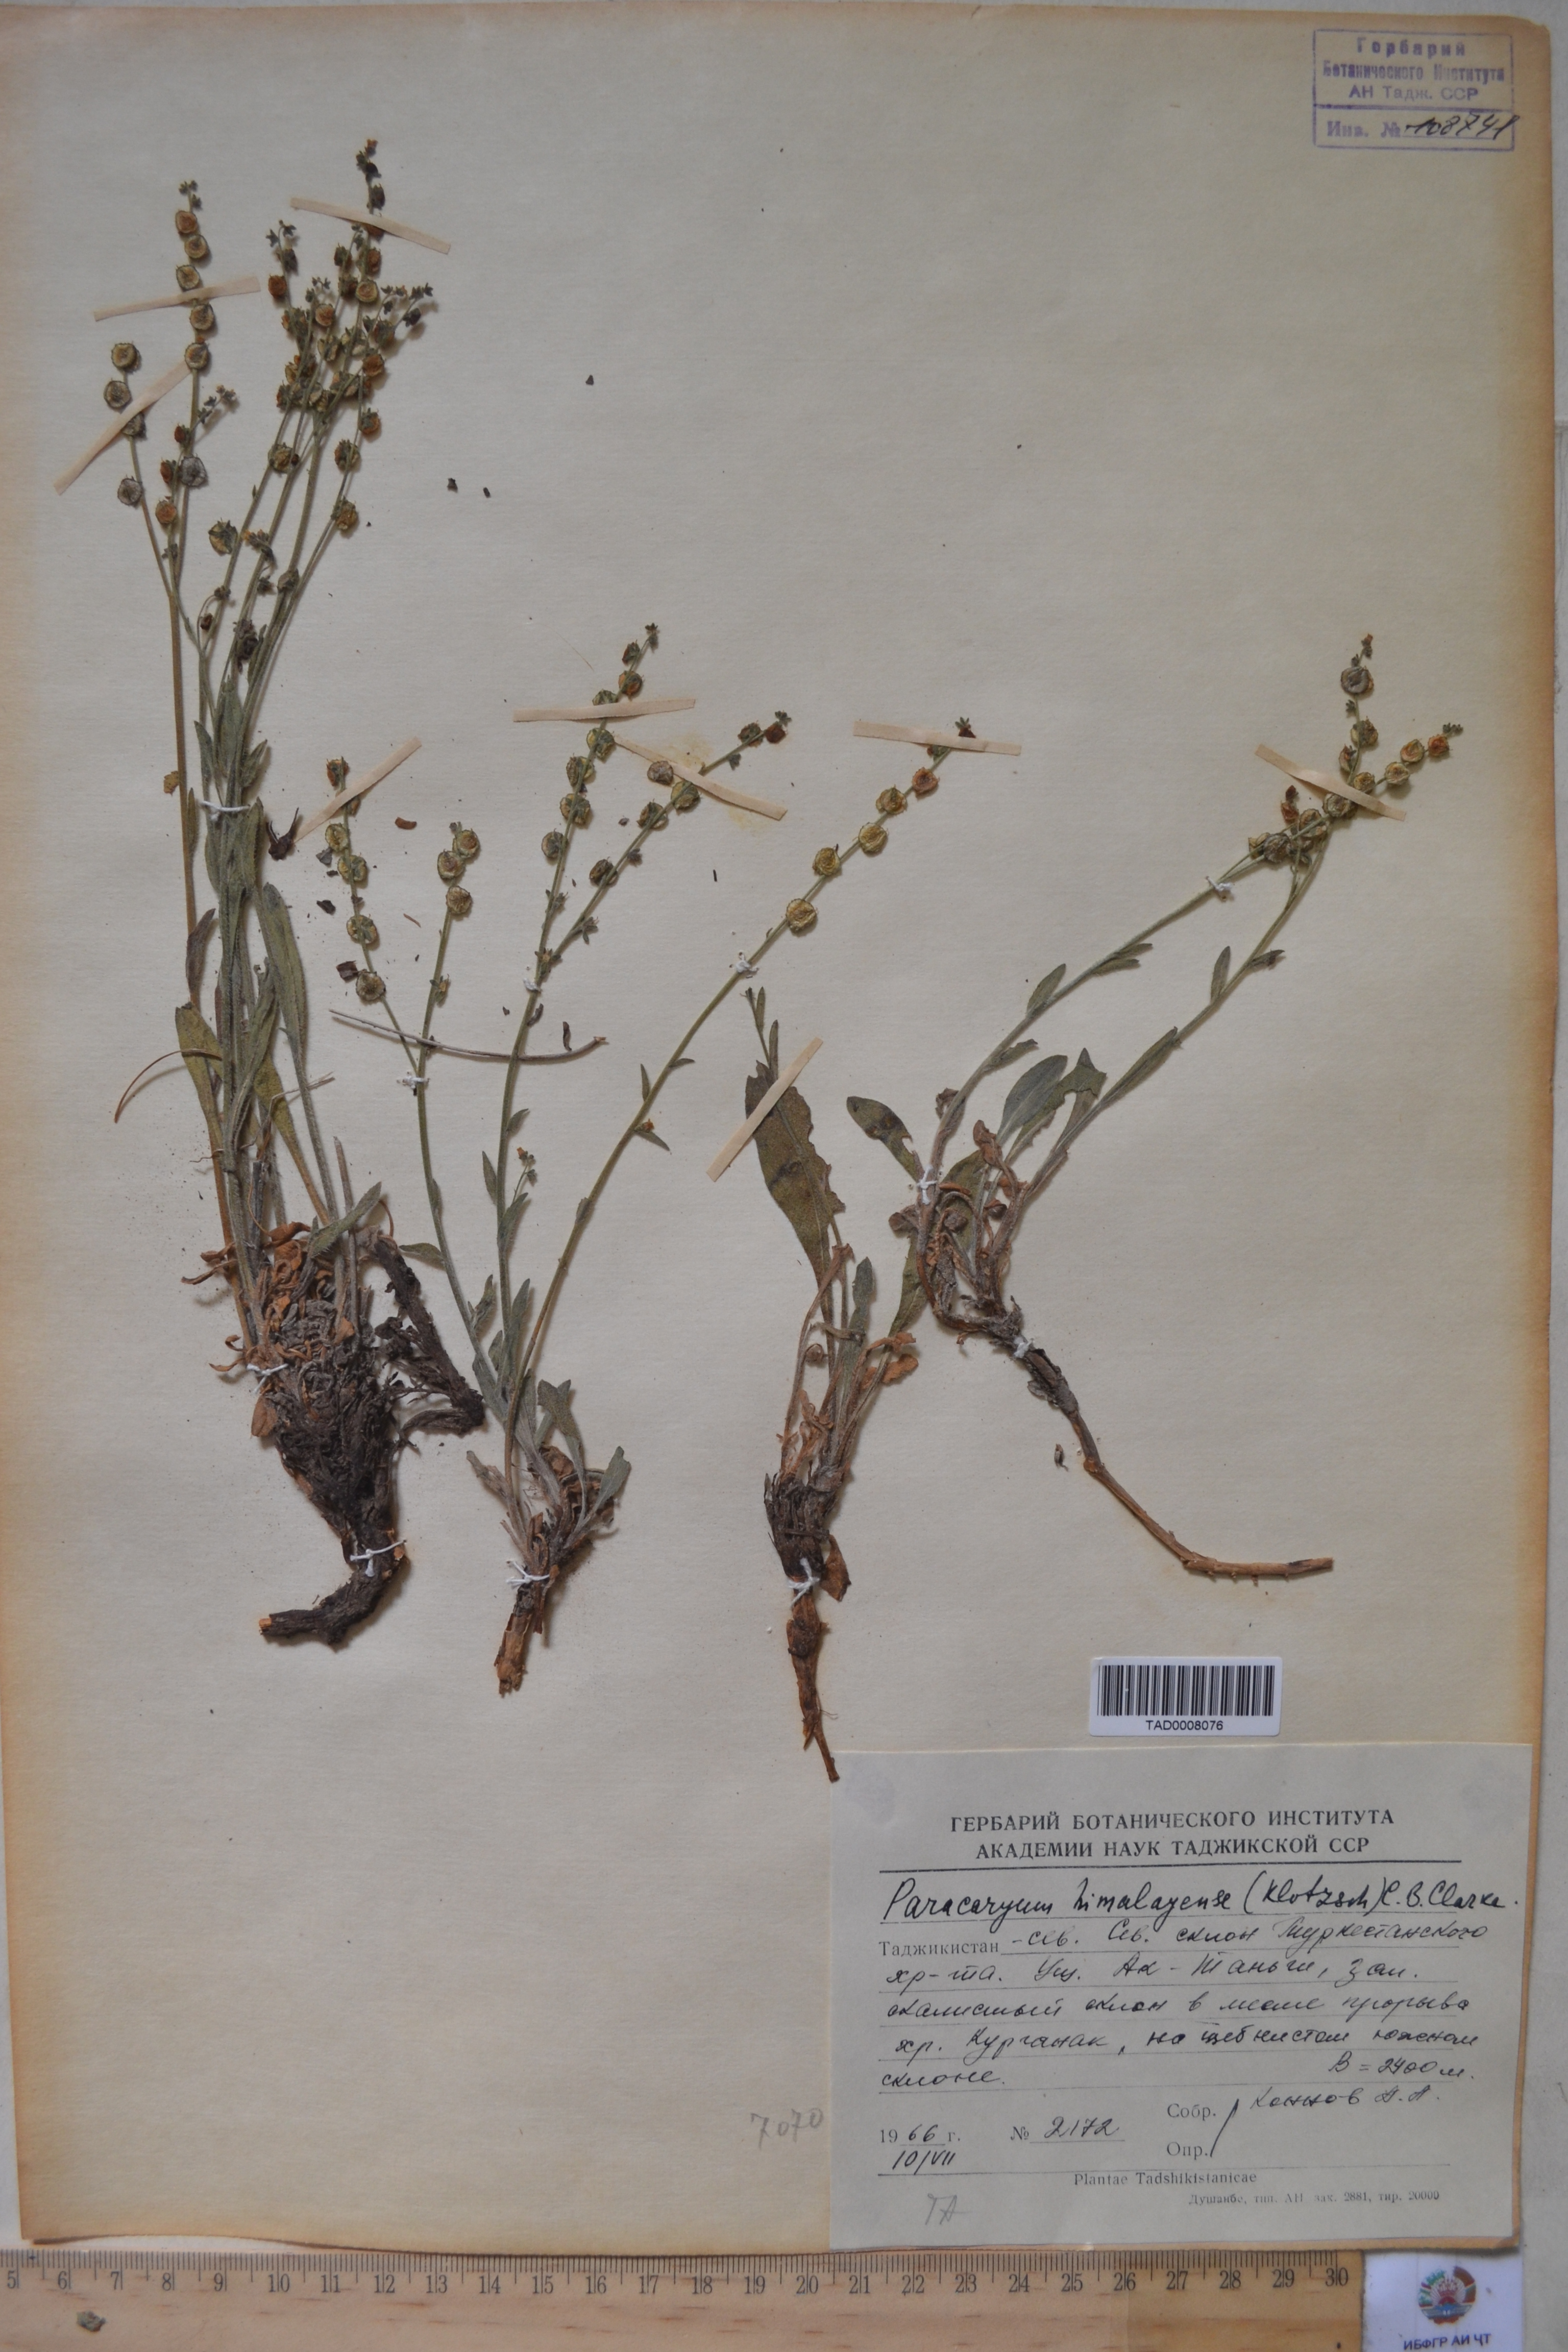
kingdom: Plantae
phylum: Tracheophyta
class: Magnoliopsida
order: Boraginales
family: Boraginaceae
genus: Paracaryum
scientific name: Paracaryum himalayense
